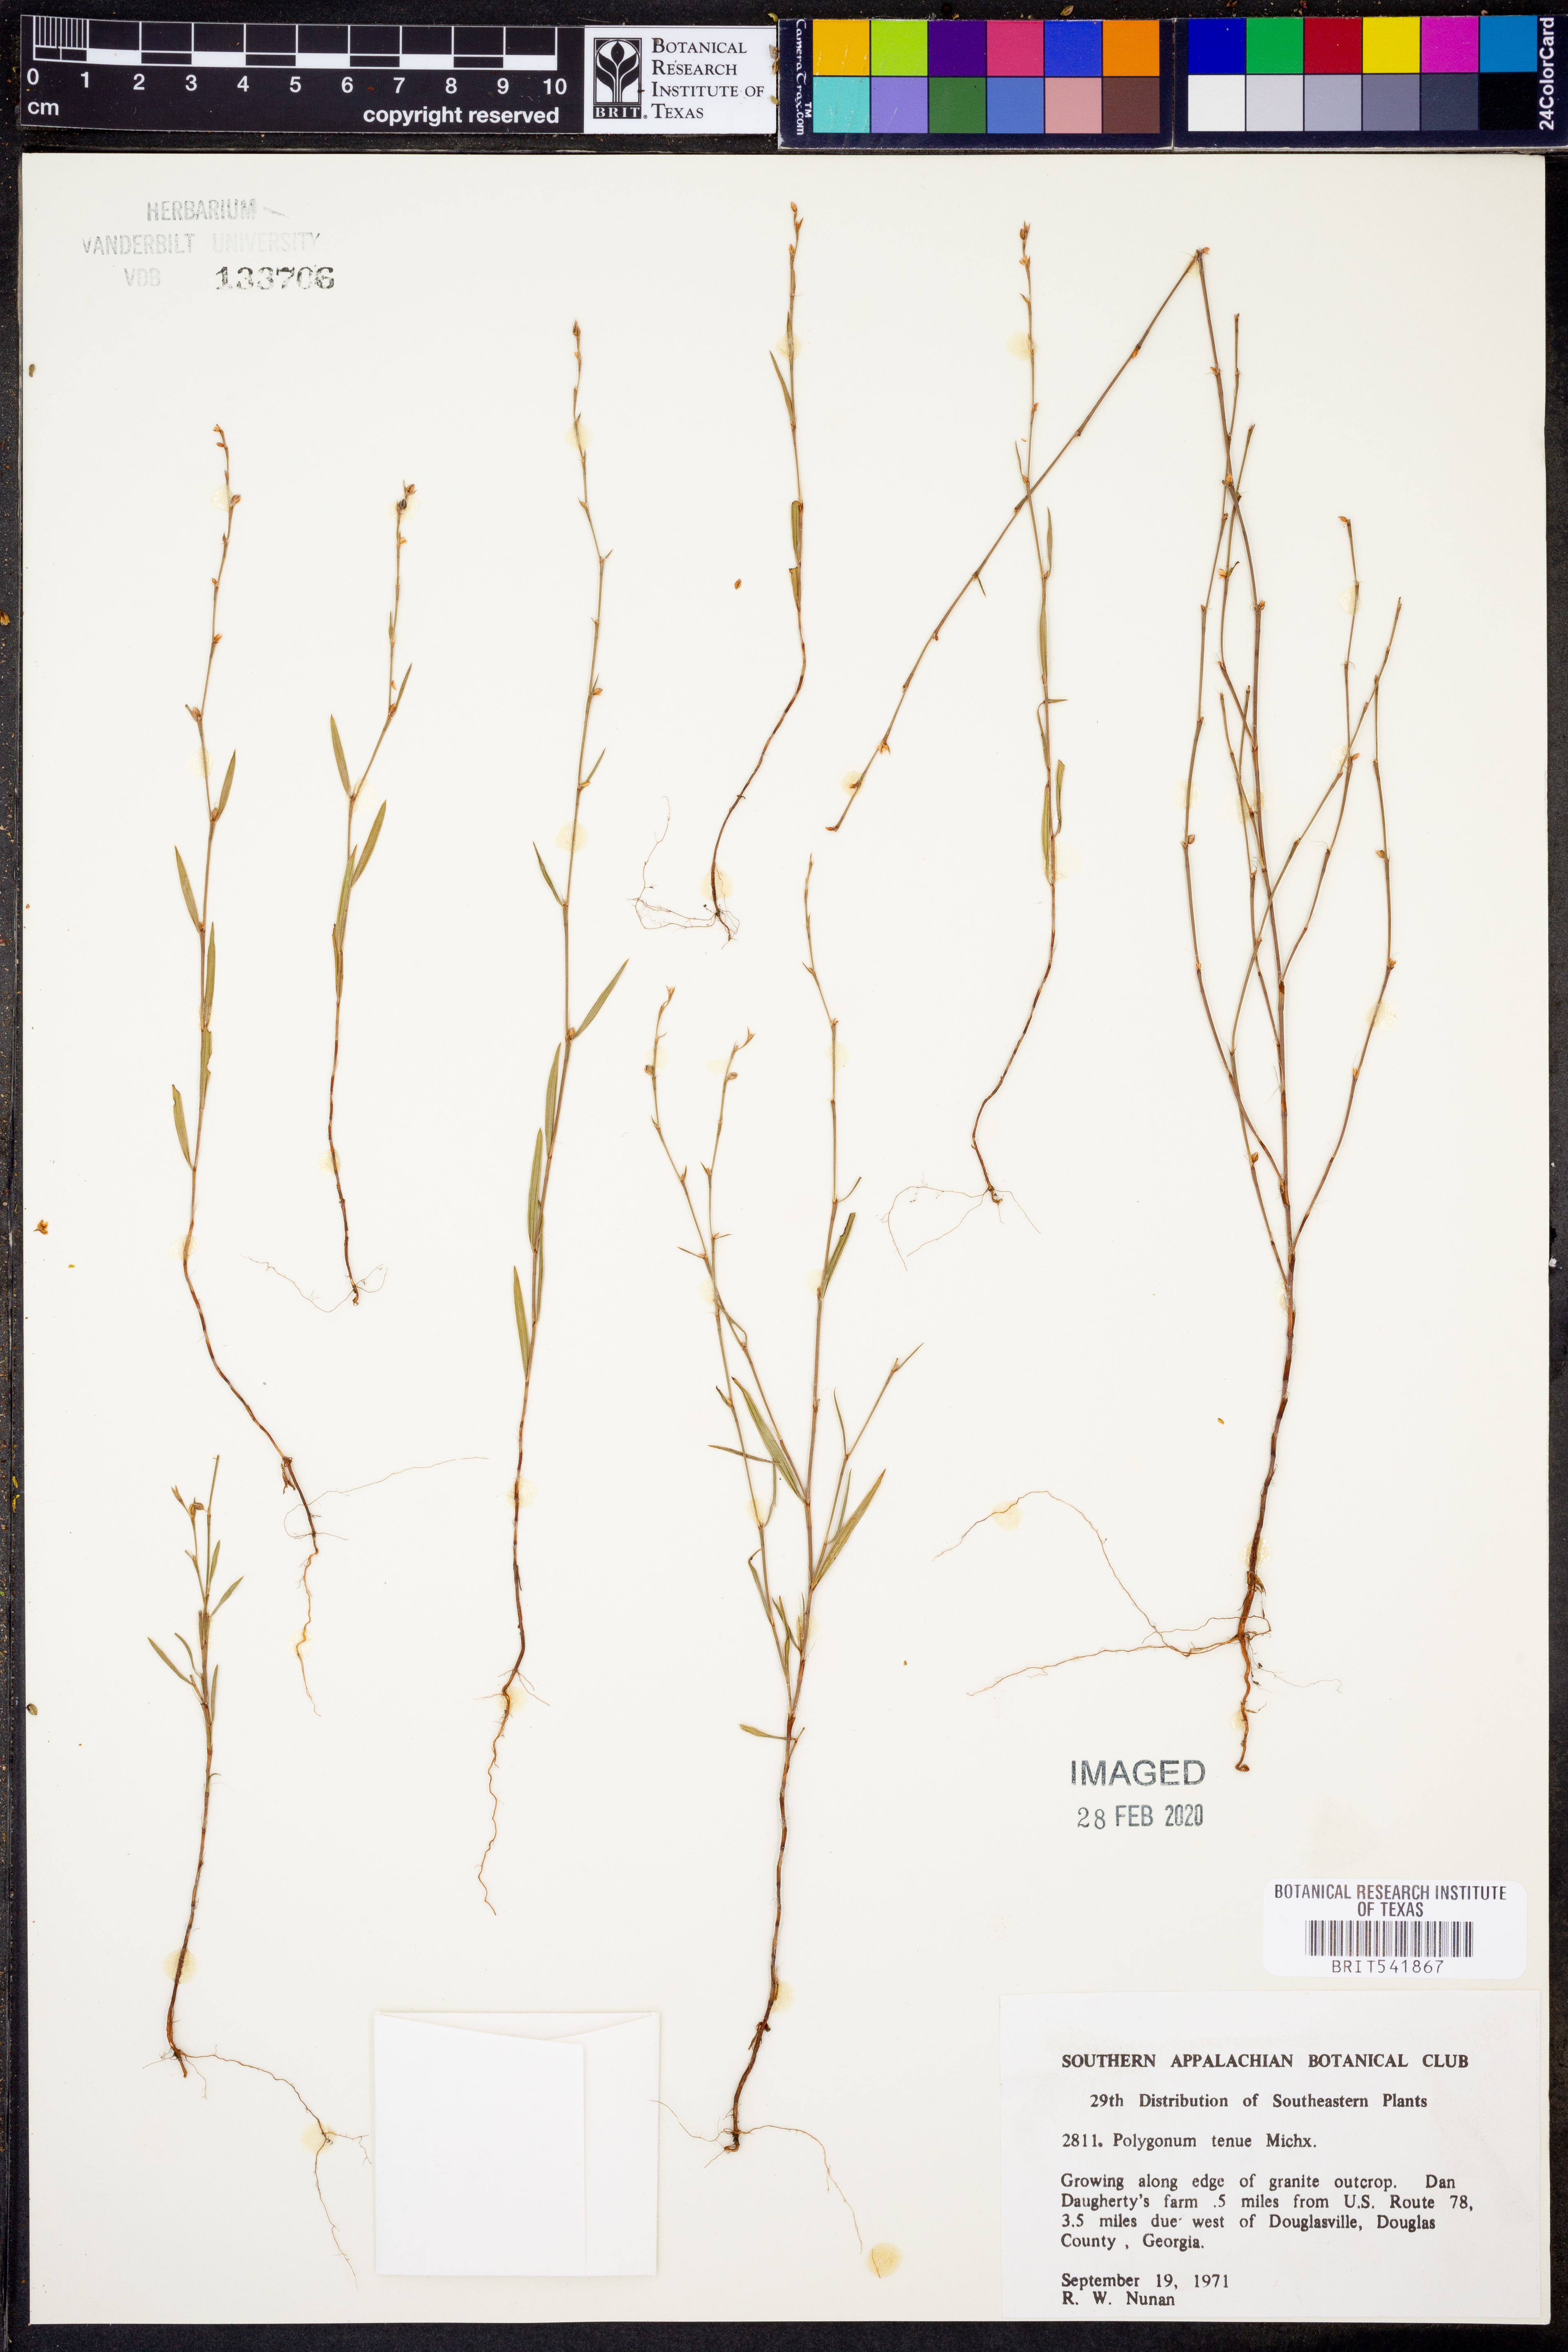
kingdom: Plantae
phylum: Tracheophyta
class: Magnoliopsida
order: Caryophyllales
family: Polygonaceae
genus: Polygonum
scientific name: Polygonum tenue
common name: Pleat-leaved knotweed
